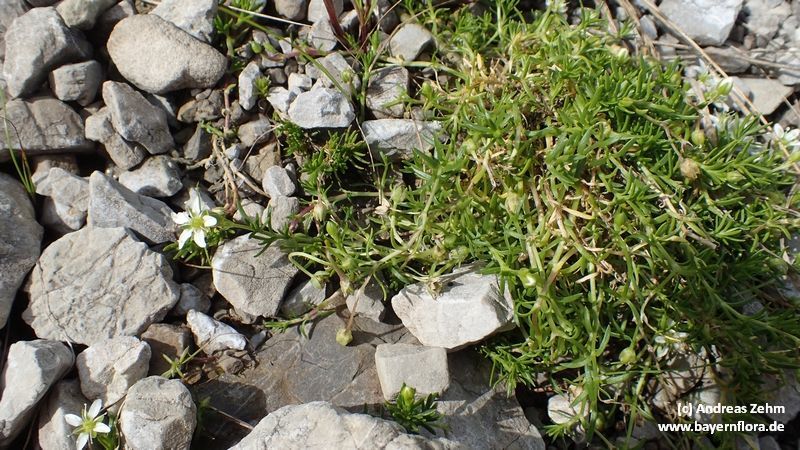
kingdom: Plantae
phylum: Tracheophyta
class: Magnoliopsida
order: Caryophyllales
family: Caryophyllaceae
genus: Moehringia
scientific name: Moehringia ciliata
